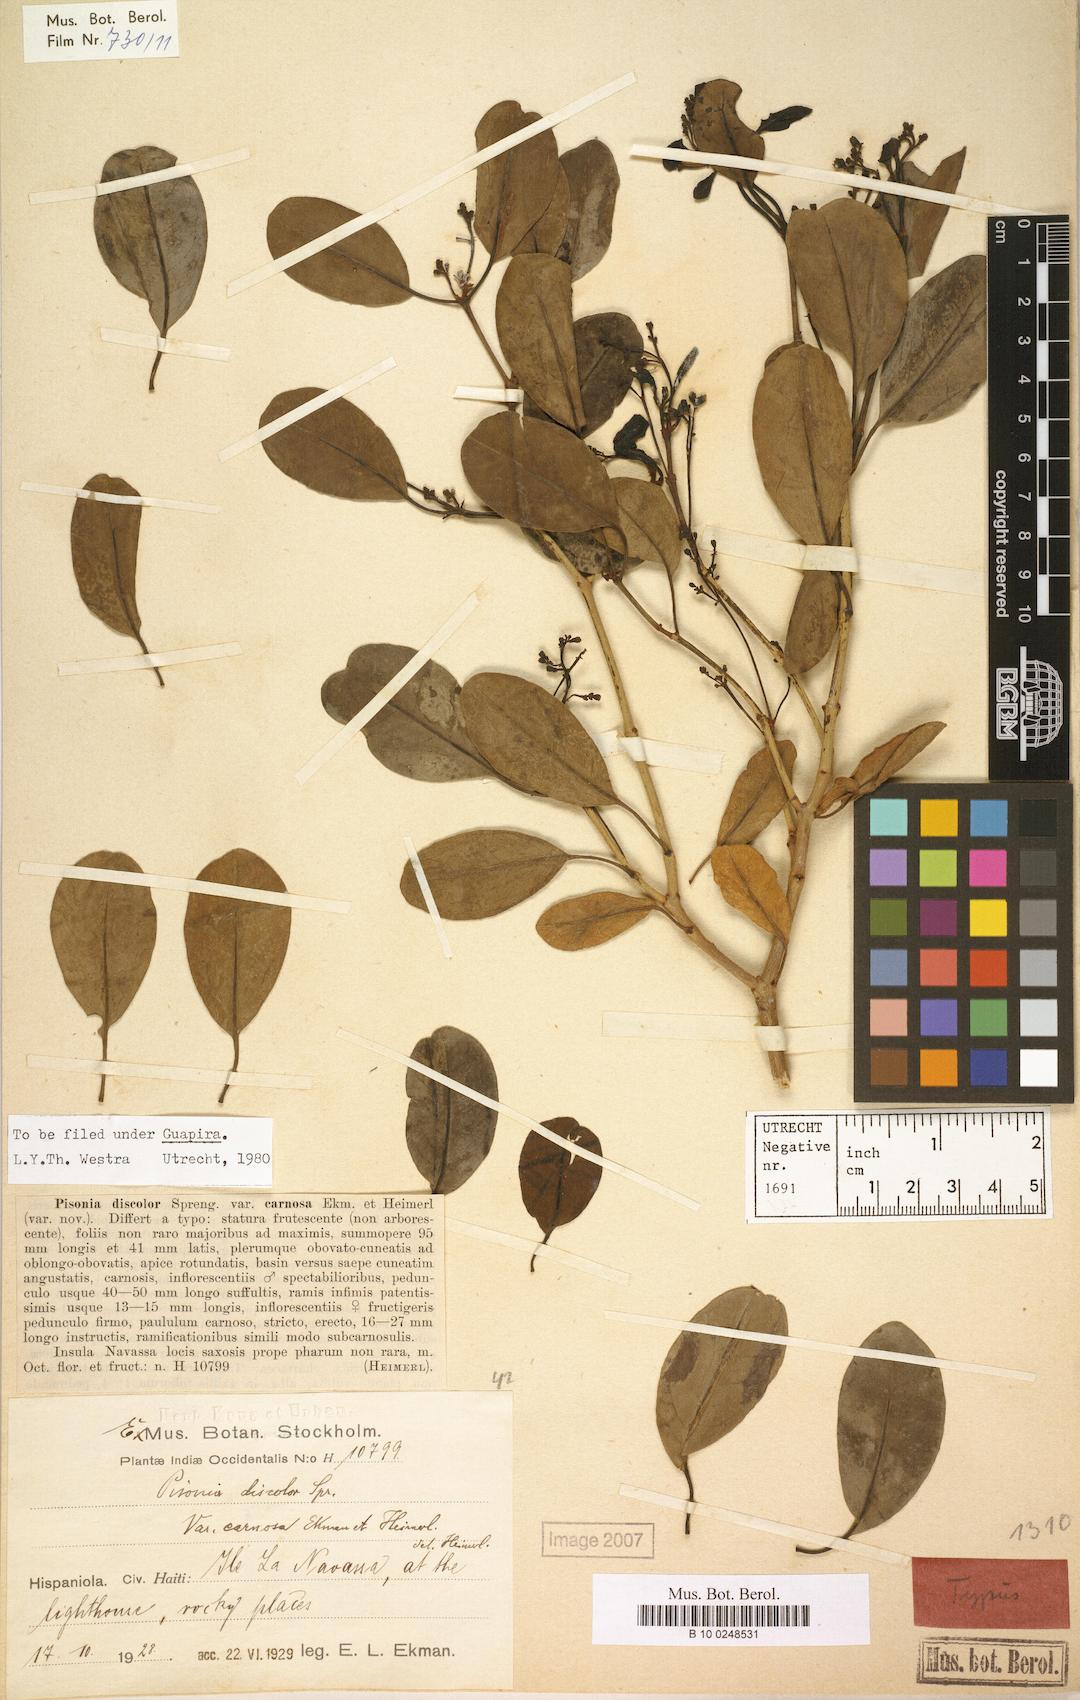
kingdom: Plantae
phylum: Tracheophyta
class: Magnoliopsida
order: Caryophyllales
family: Nyctaginaceae
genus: Guapira
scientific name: Guapira discolor
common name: Beeftree
